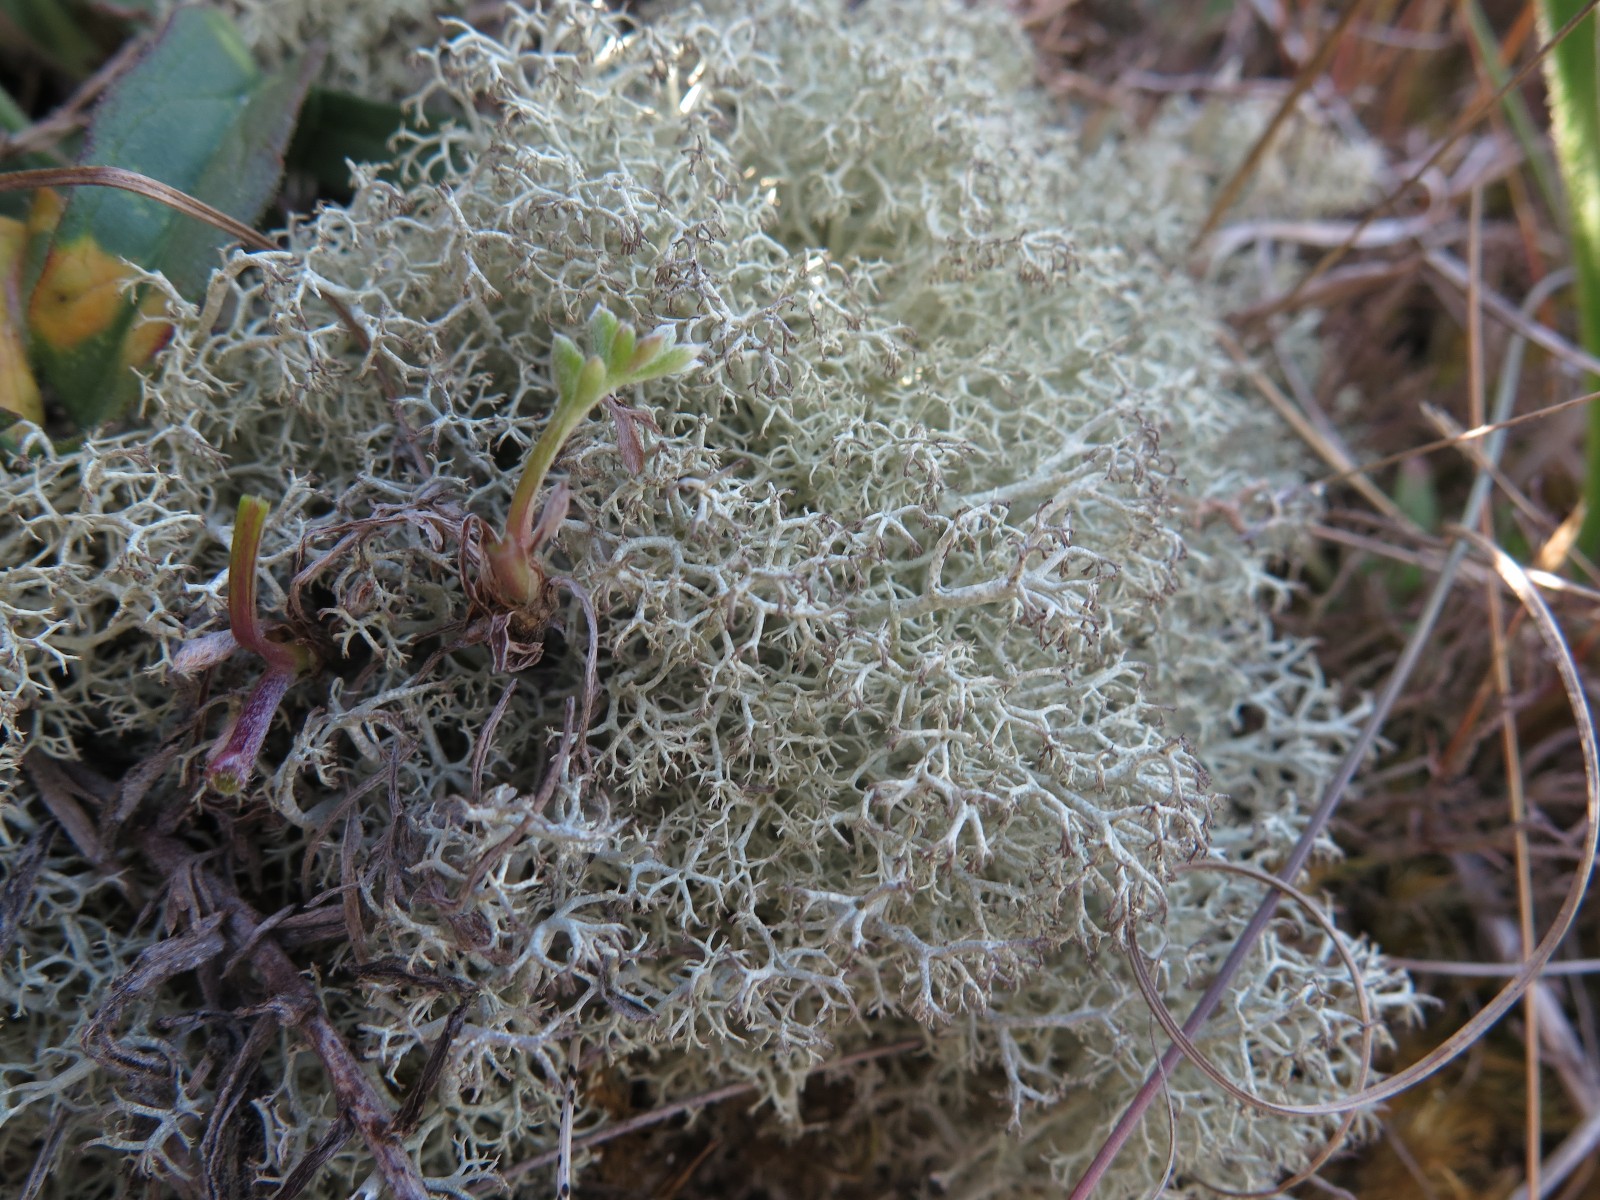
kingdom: Fungi
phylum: Ascomycota
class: Lecanoromycetes
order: Lecanorales
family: Cladoniaceae
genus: Cladonia
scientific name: Cladonia portentosa
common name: hede-rensdyrlav
